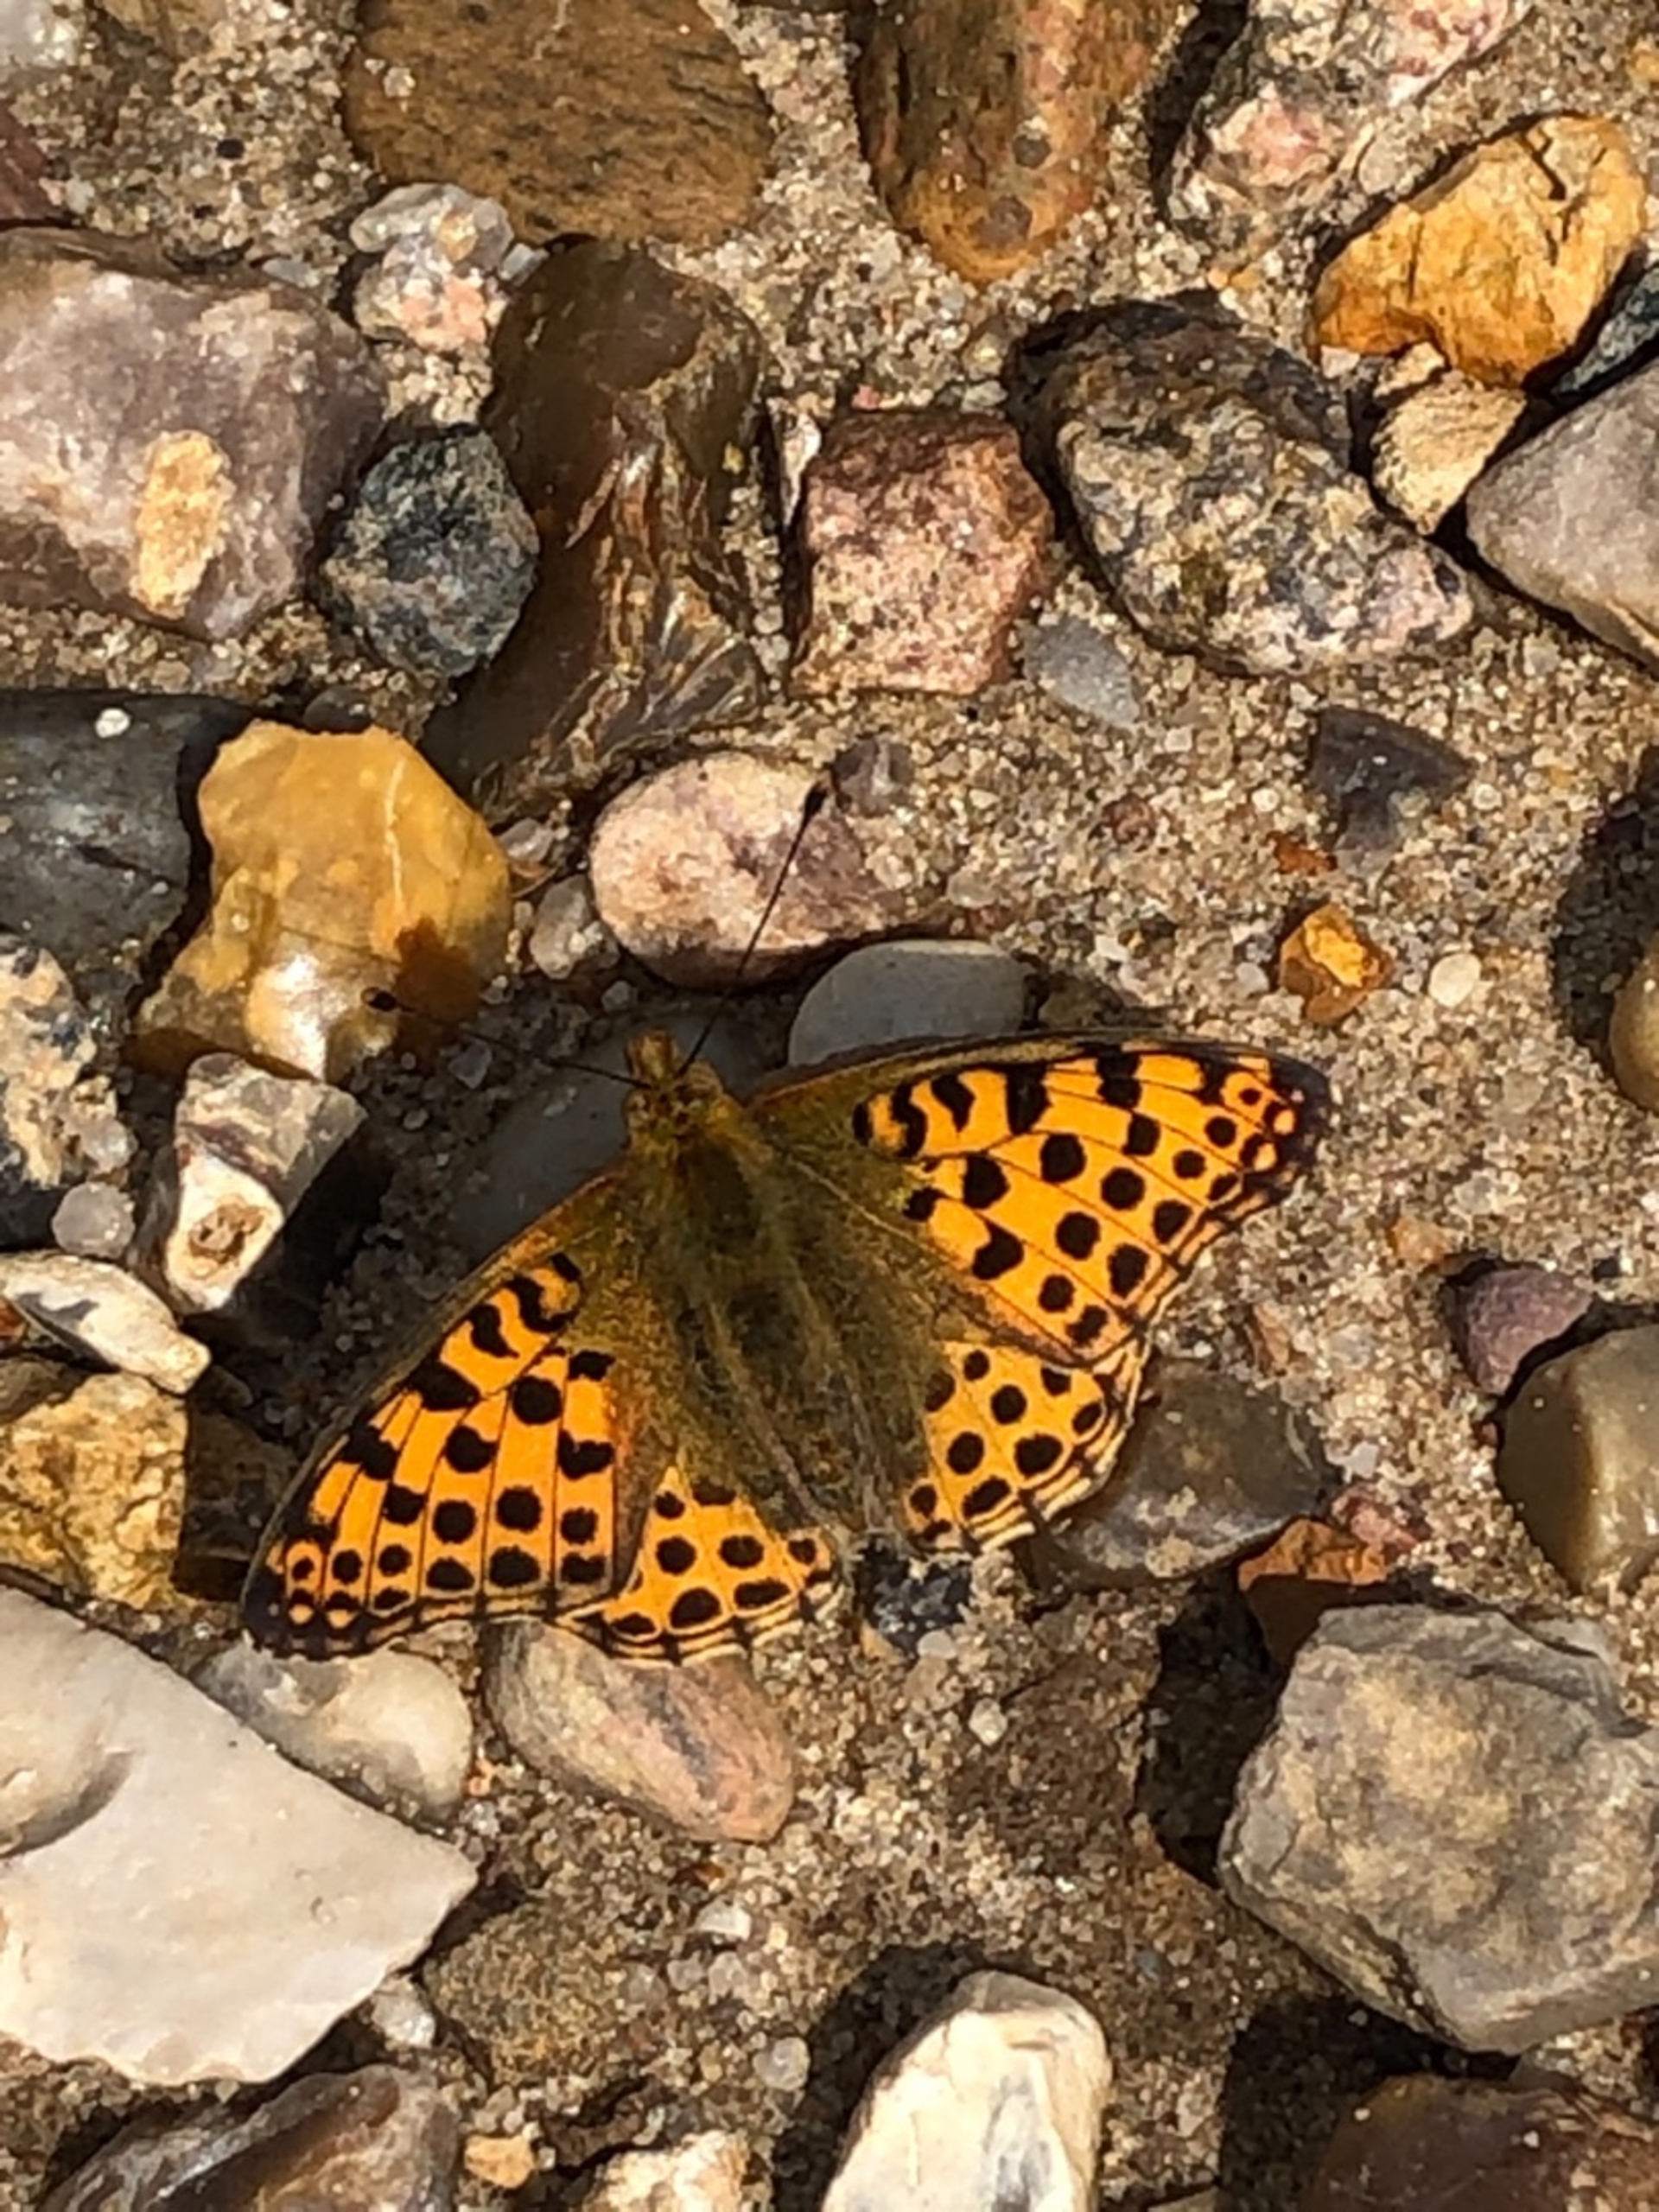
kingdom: Animalia
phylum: Arthropoda
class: Insecta
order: Lepidoptera
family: Nymphalidae
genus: Issoria
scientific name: Issoria lathonia
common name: Storplettet perlemorsommerfugl
